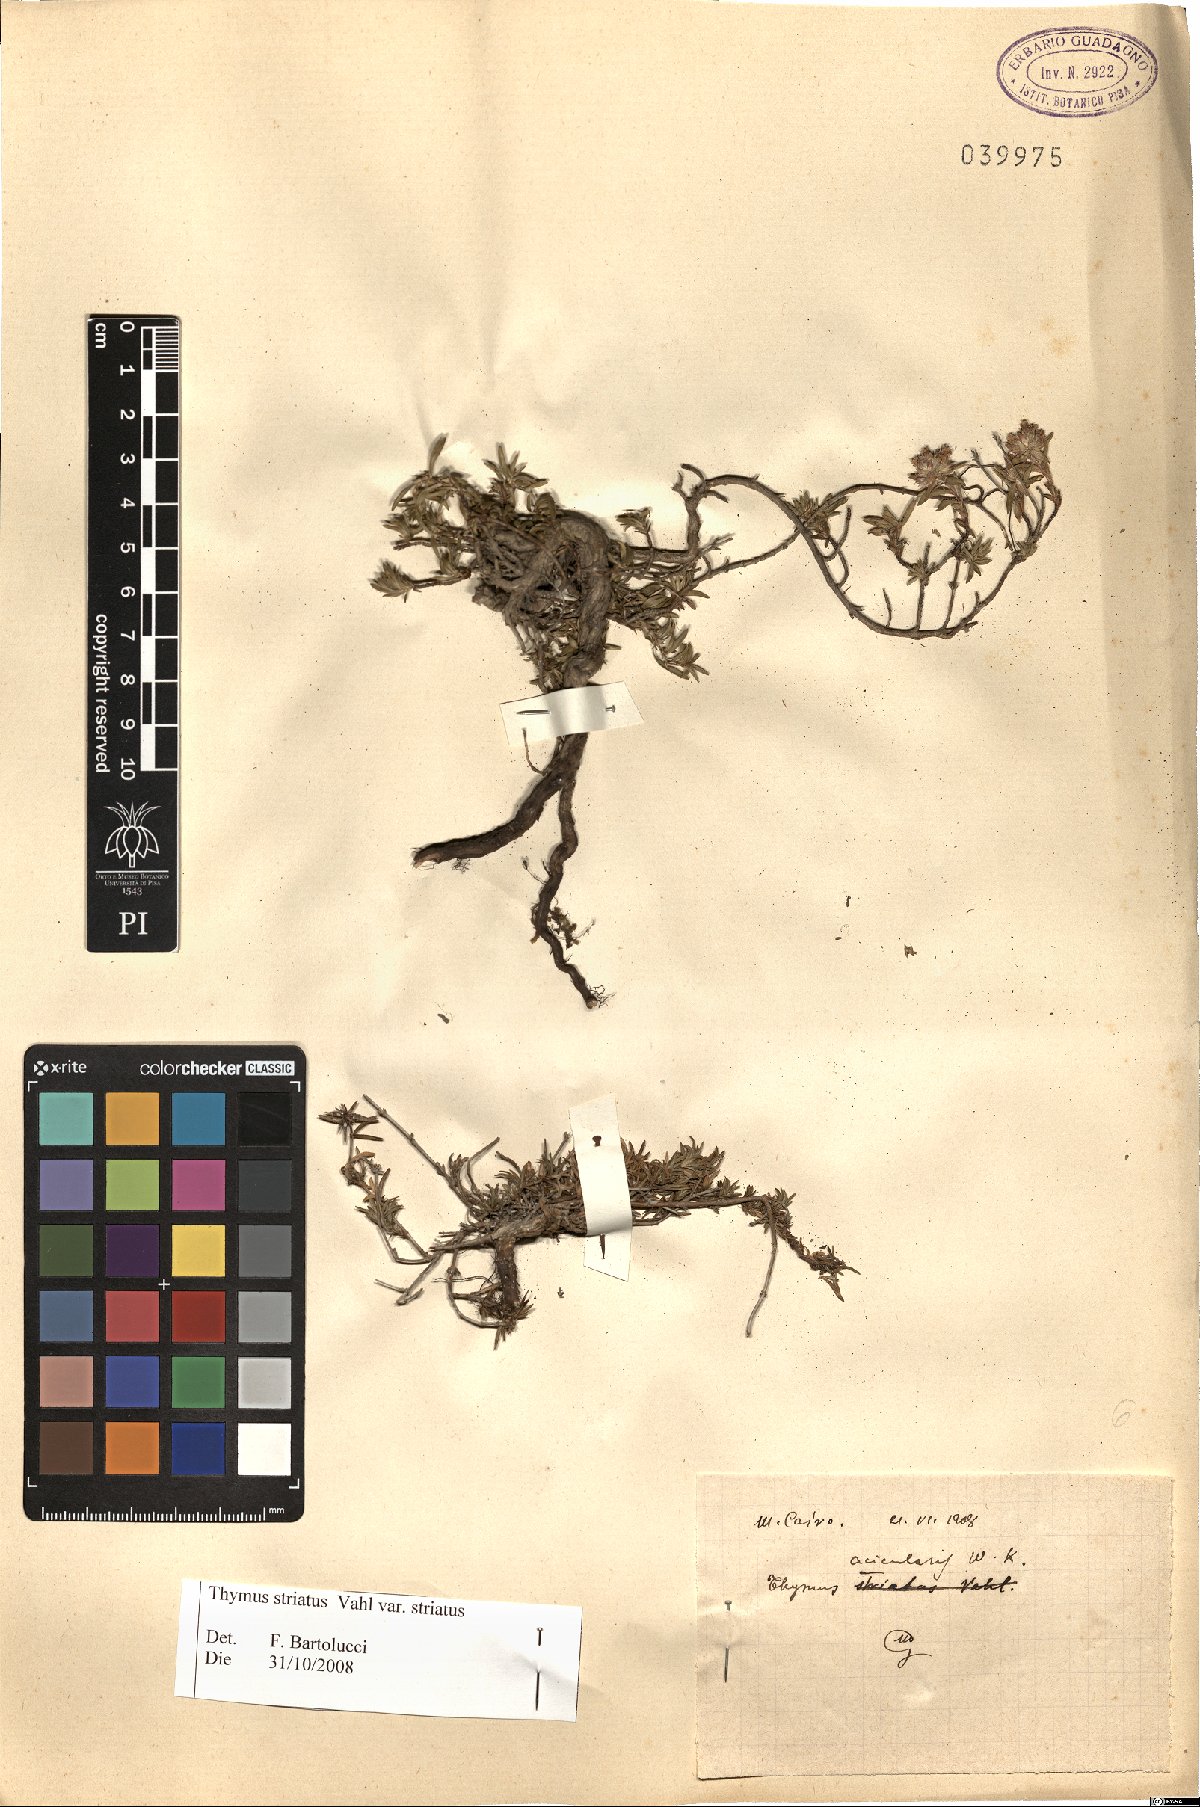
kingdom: Plantae
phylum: Tracheophyta
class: Magnoliopsida
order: Lamiales
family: Lamiaceae
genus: Thymus
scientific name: Thymus striatus
